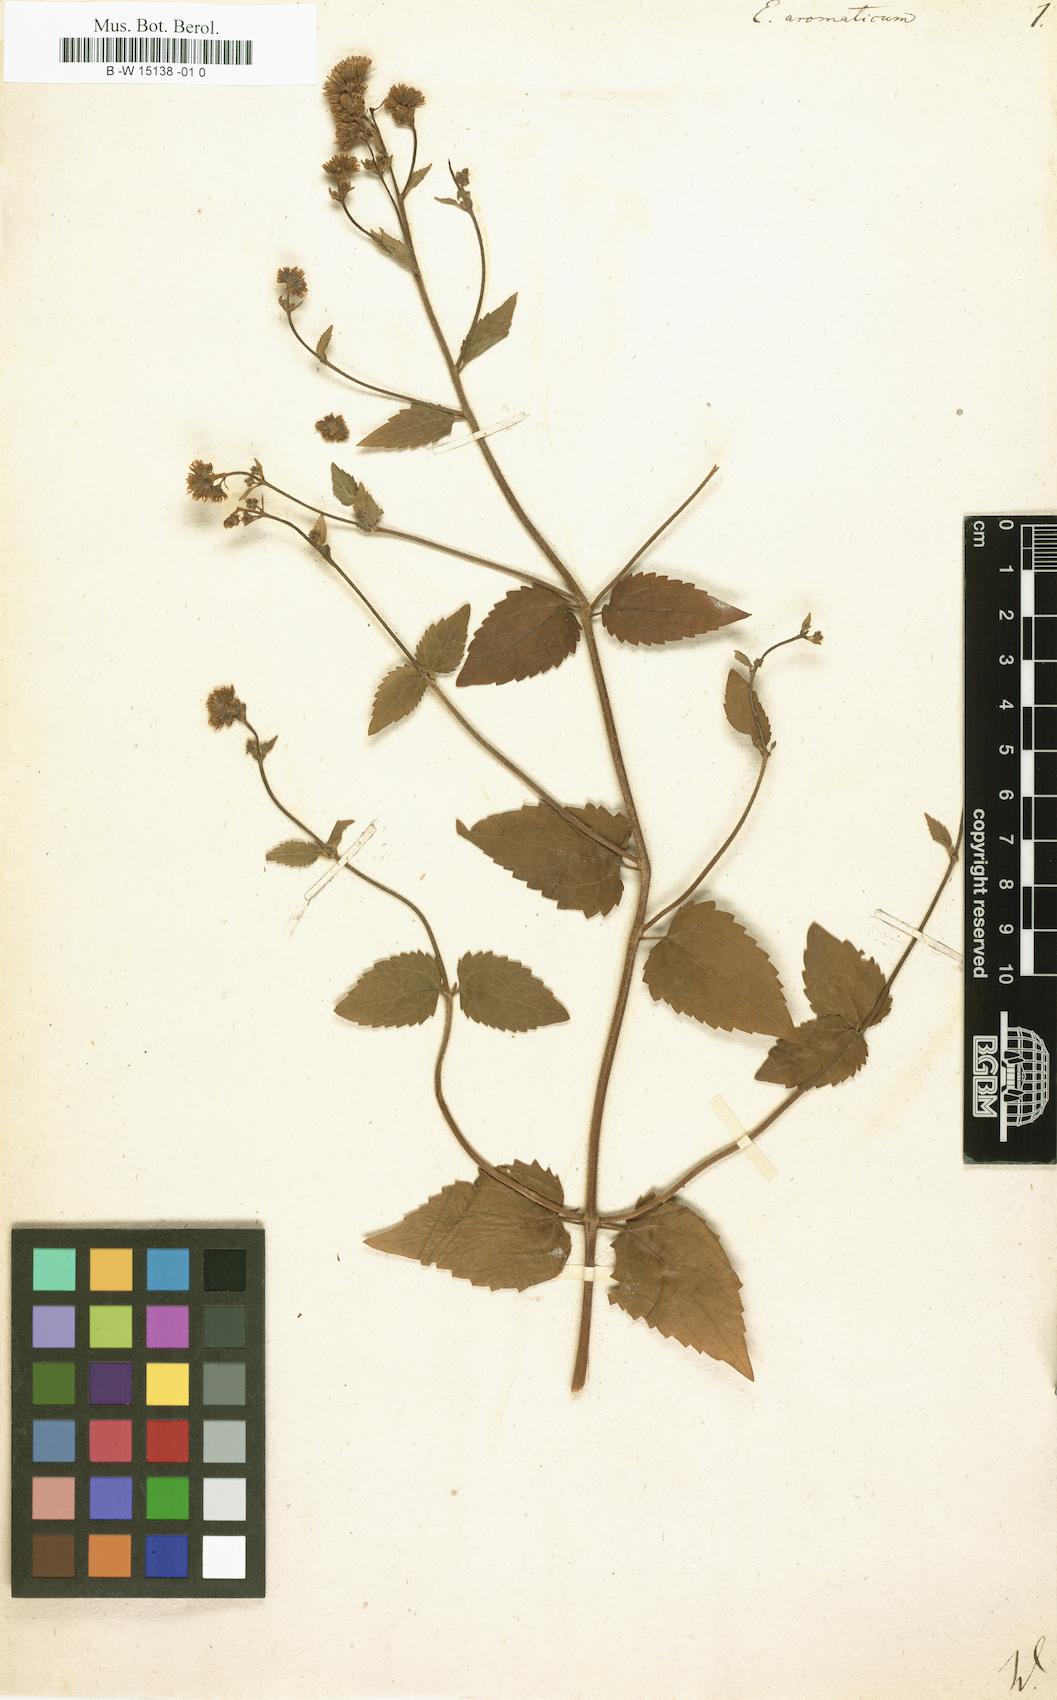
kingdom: Plantae
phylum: Tracheophyta
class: Magnoliopsida
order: Asterales
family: Asteraceae
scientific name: Asteraceae
